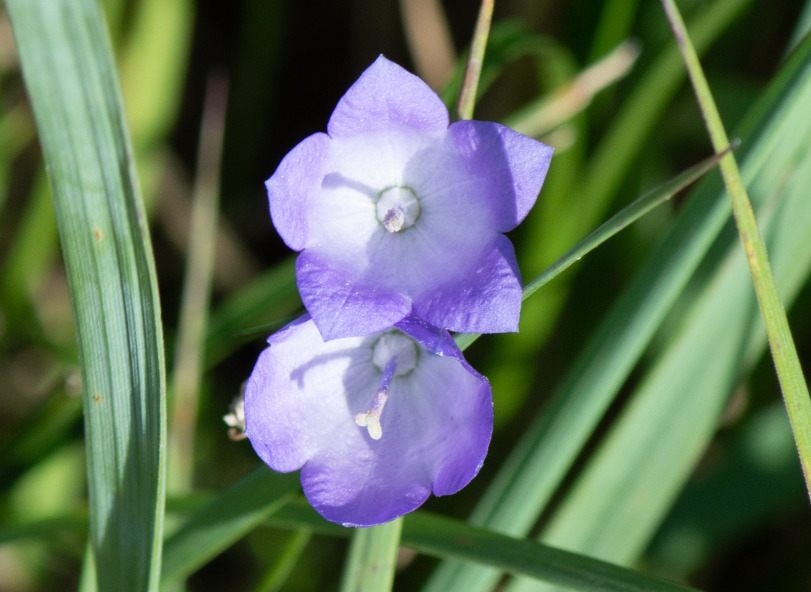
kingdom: Plantae
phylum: Tracheophyta
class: Magnoliopsida
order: Asterales
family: Campanulaceae
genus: Campanula
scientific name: Campanula rotundifolia
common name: Liden klokke
